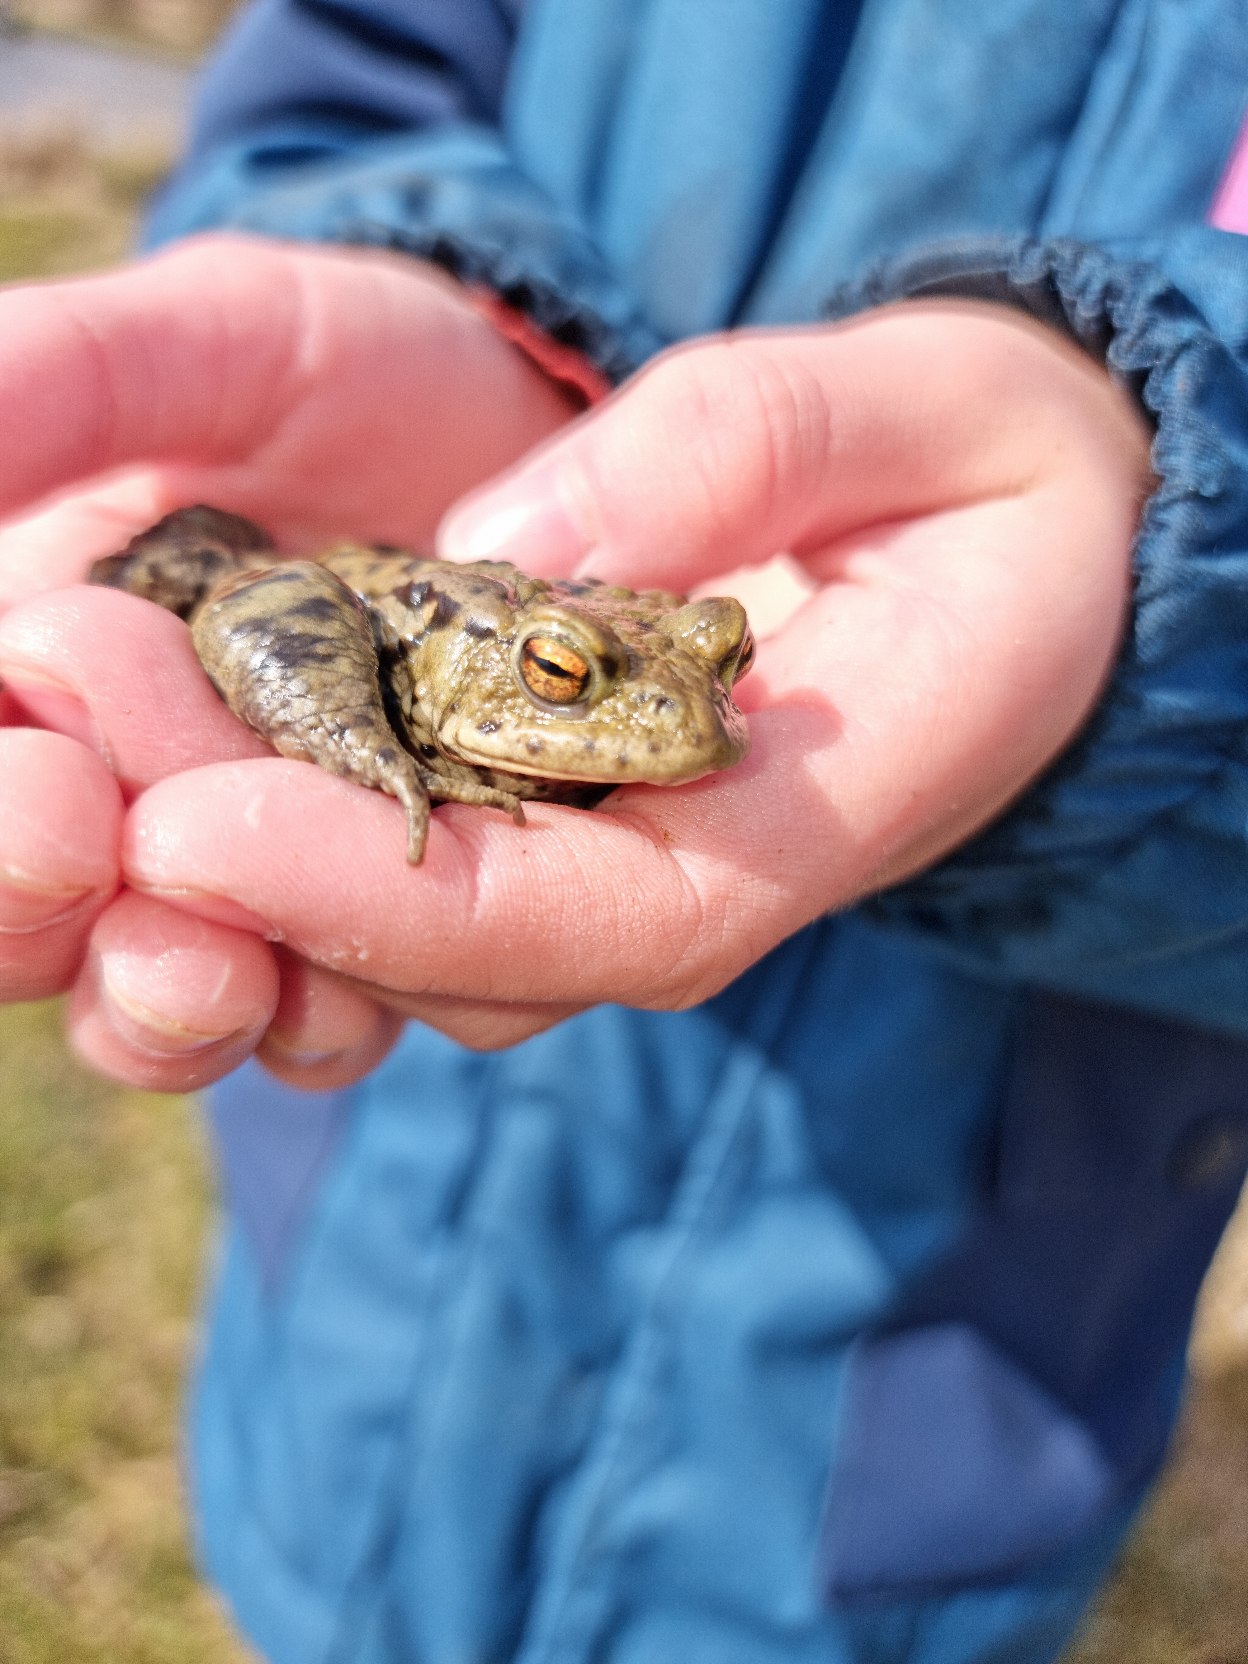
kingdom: Animalia
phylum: Chordata
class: Amphibia
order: Anura
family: Bufonidae
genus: Bufo
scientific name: Bufo bufo
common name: Skrubtudse
